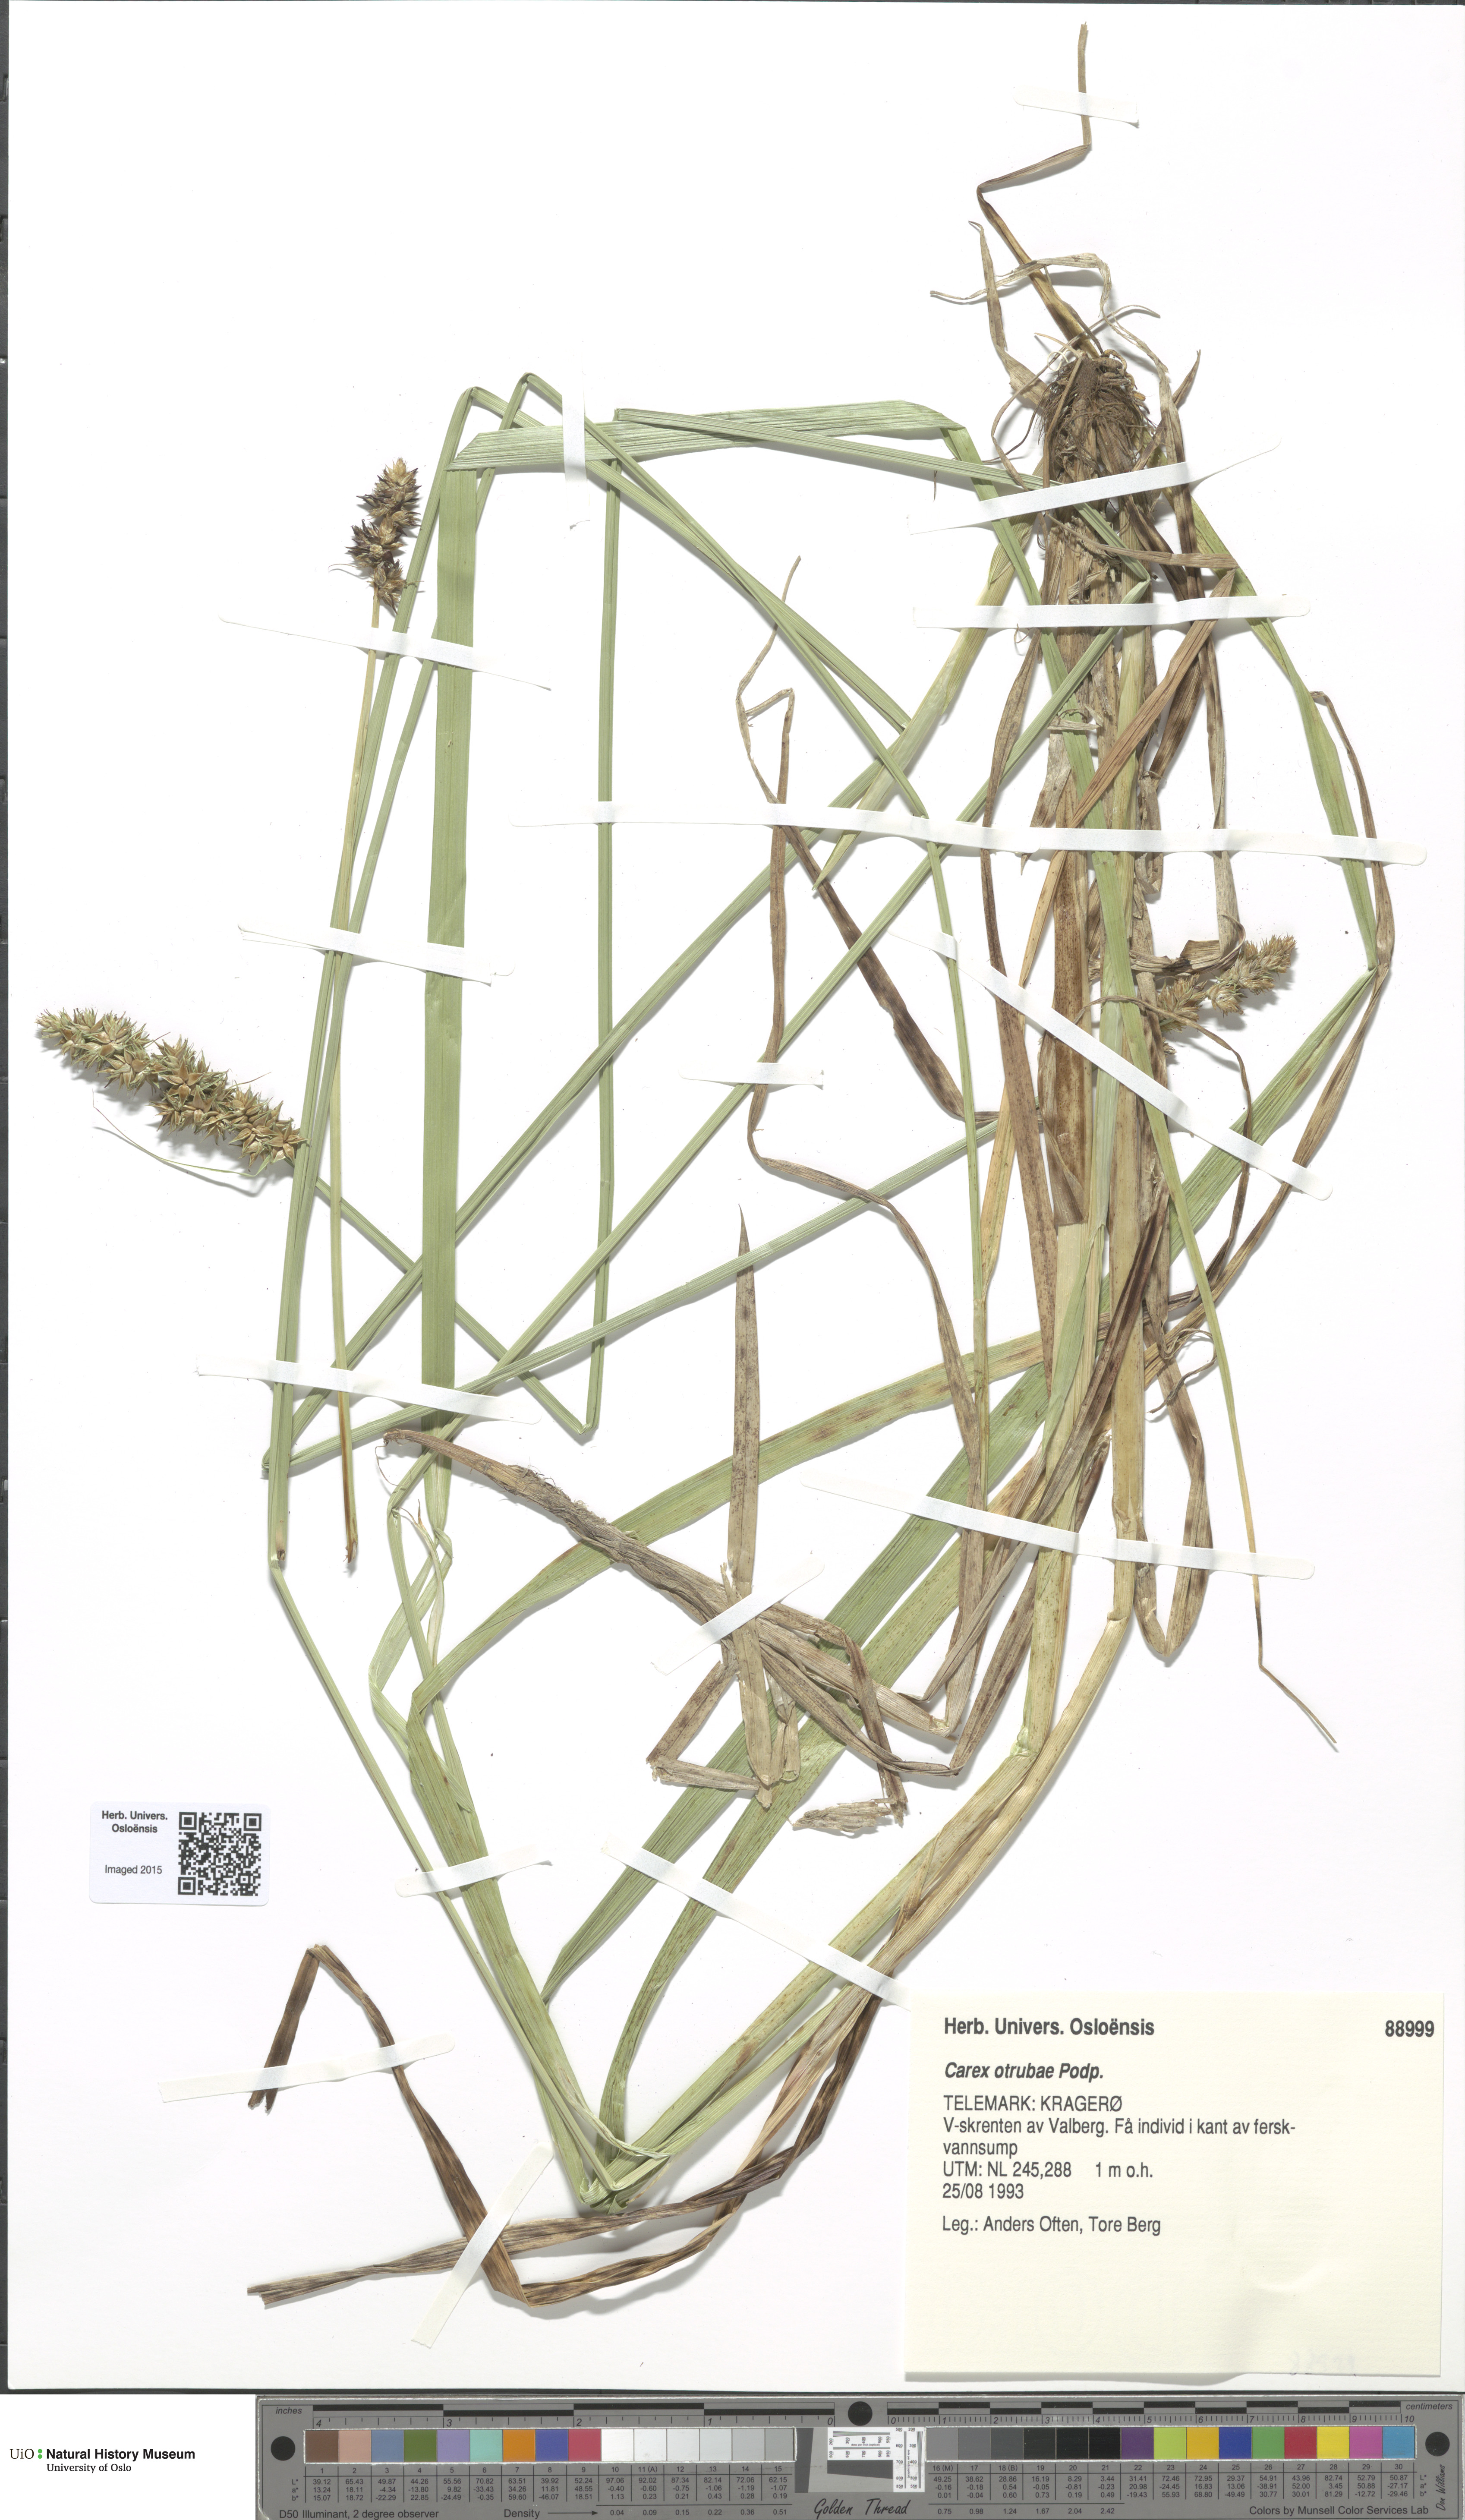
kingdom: Plantae
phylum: Tracheophyta
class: Liliopsida
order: Poales
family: Cyperaceae
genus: Carex
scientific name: Carex otrubae
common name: False fox-sedge
